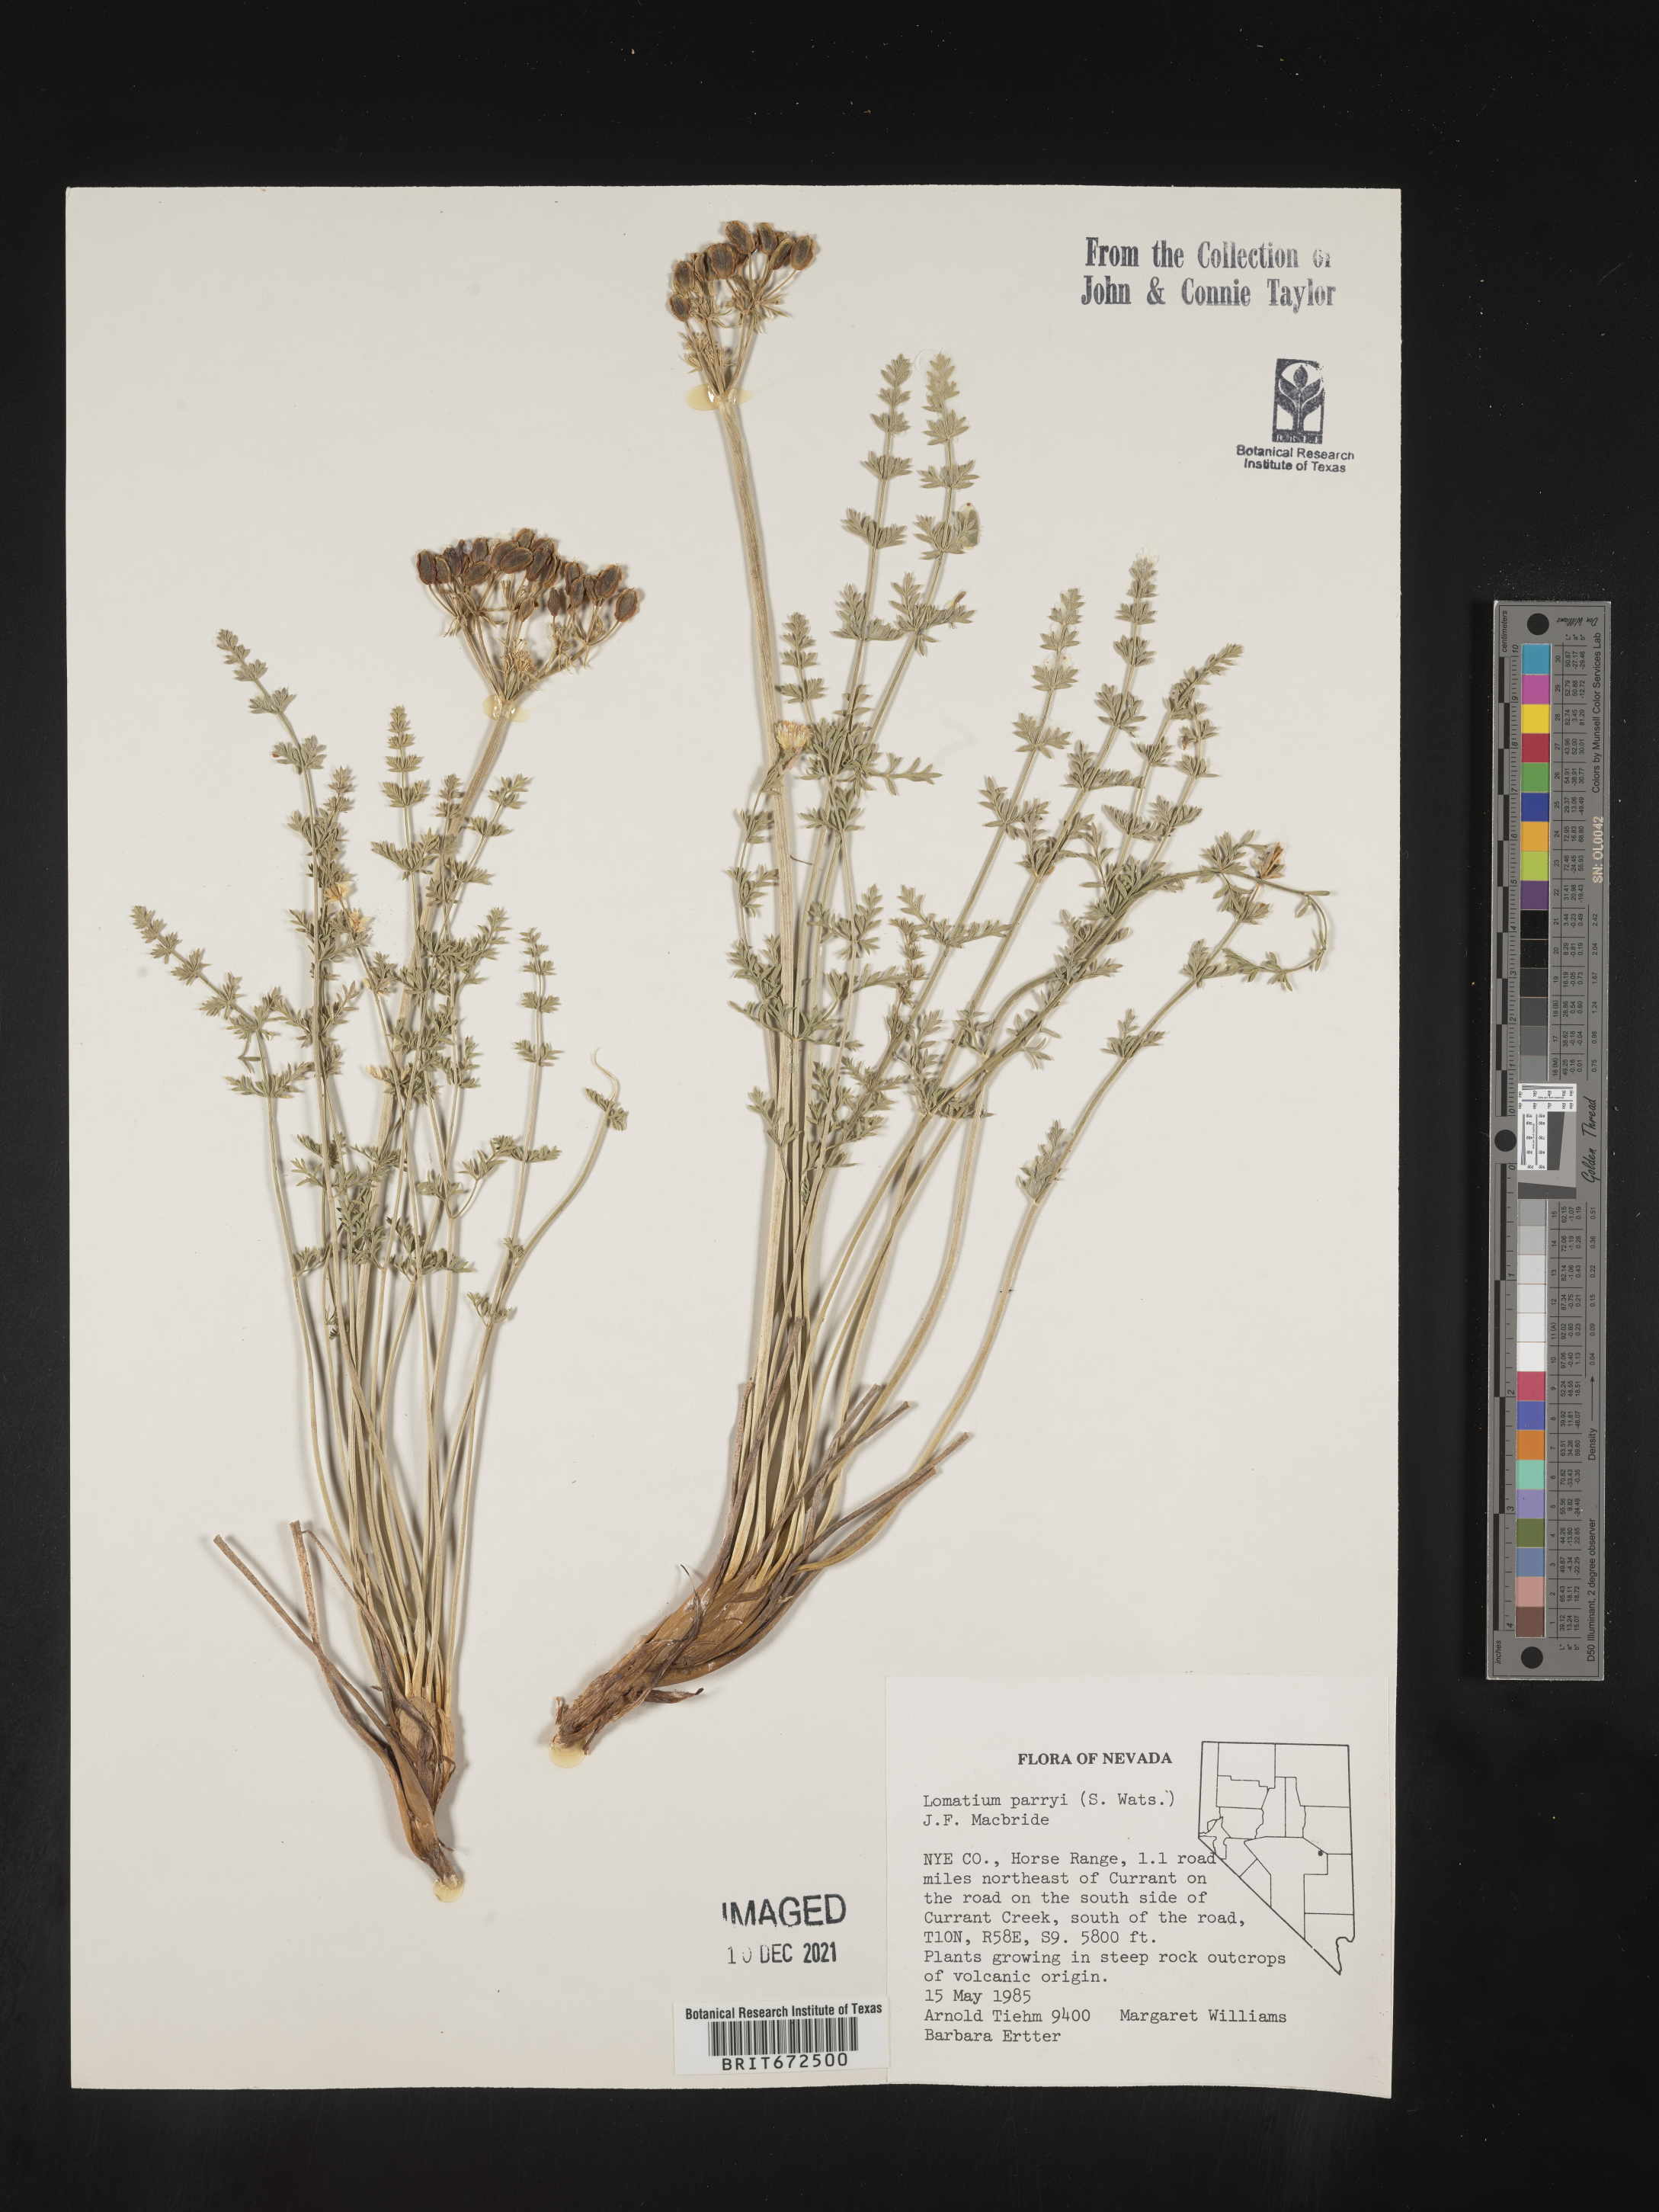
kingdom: Plantae
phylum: Tracheophyta
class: Magnoliopsida
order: Apiales
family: Apiaceae
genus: Lomatium
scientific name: Lomatium parryi
